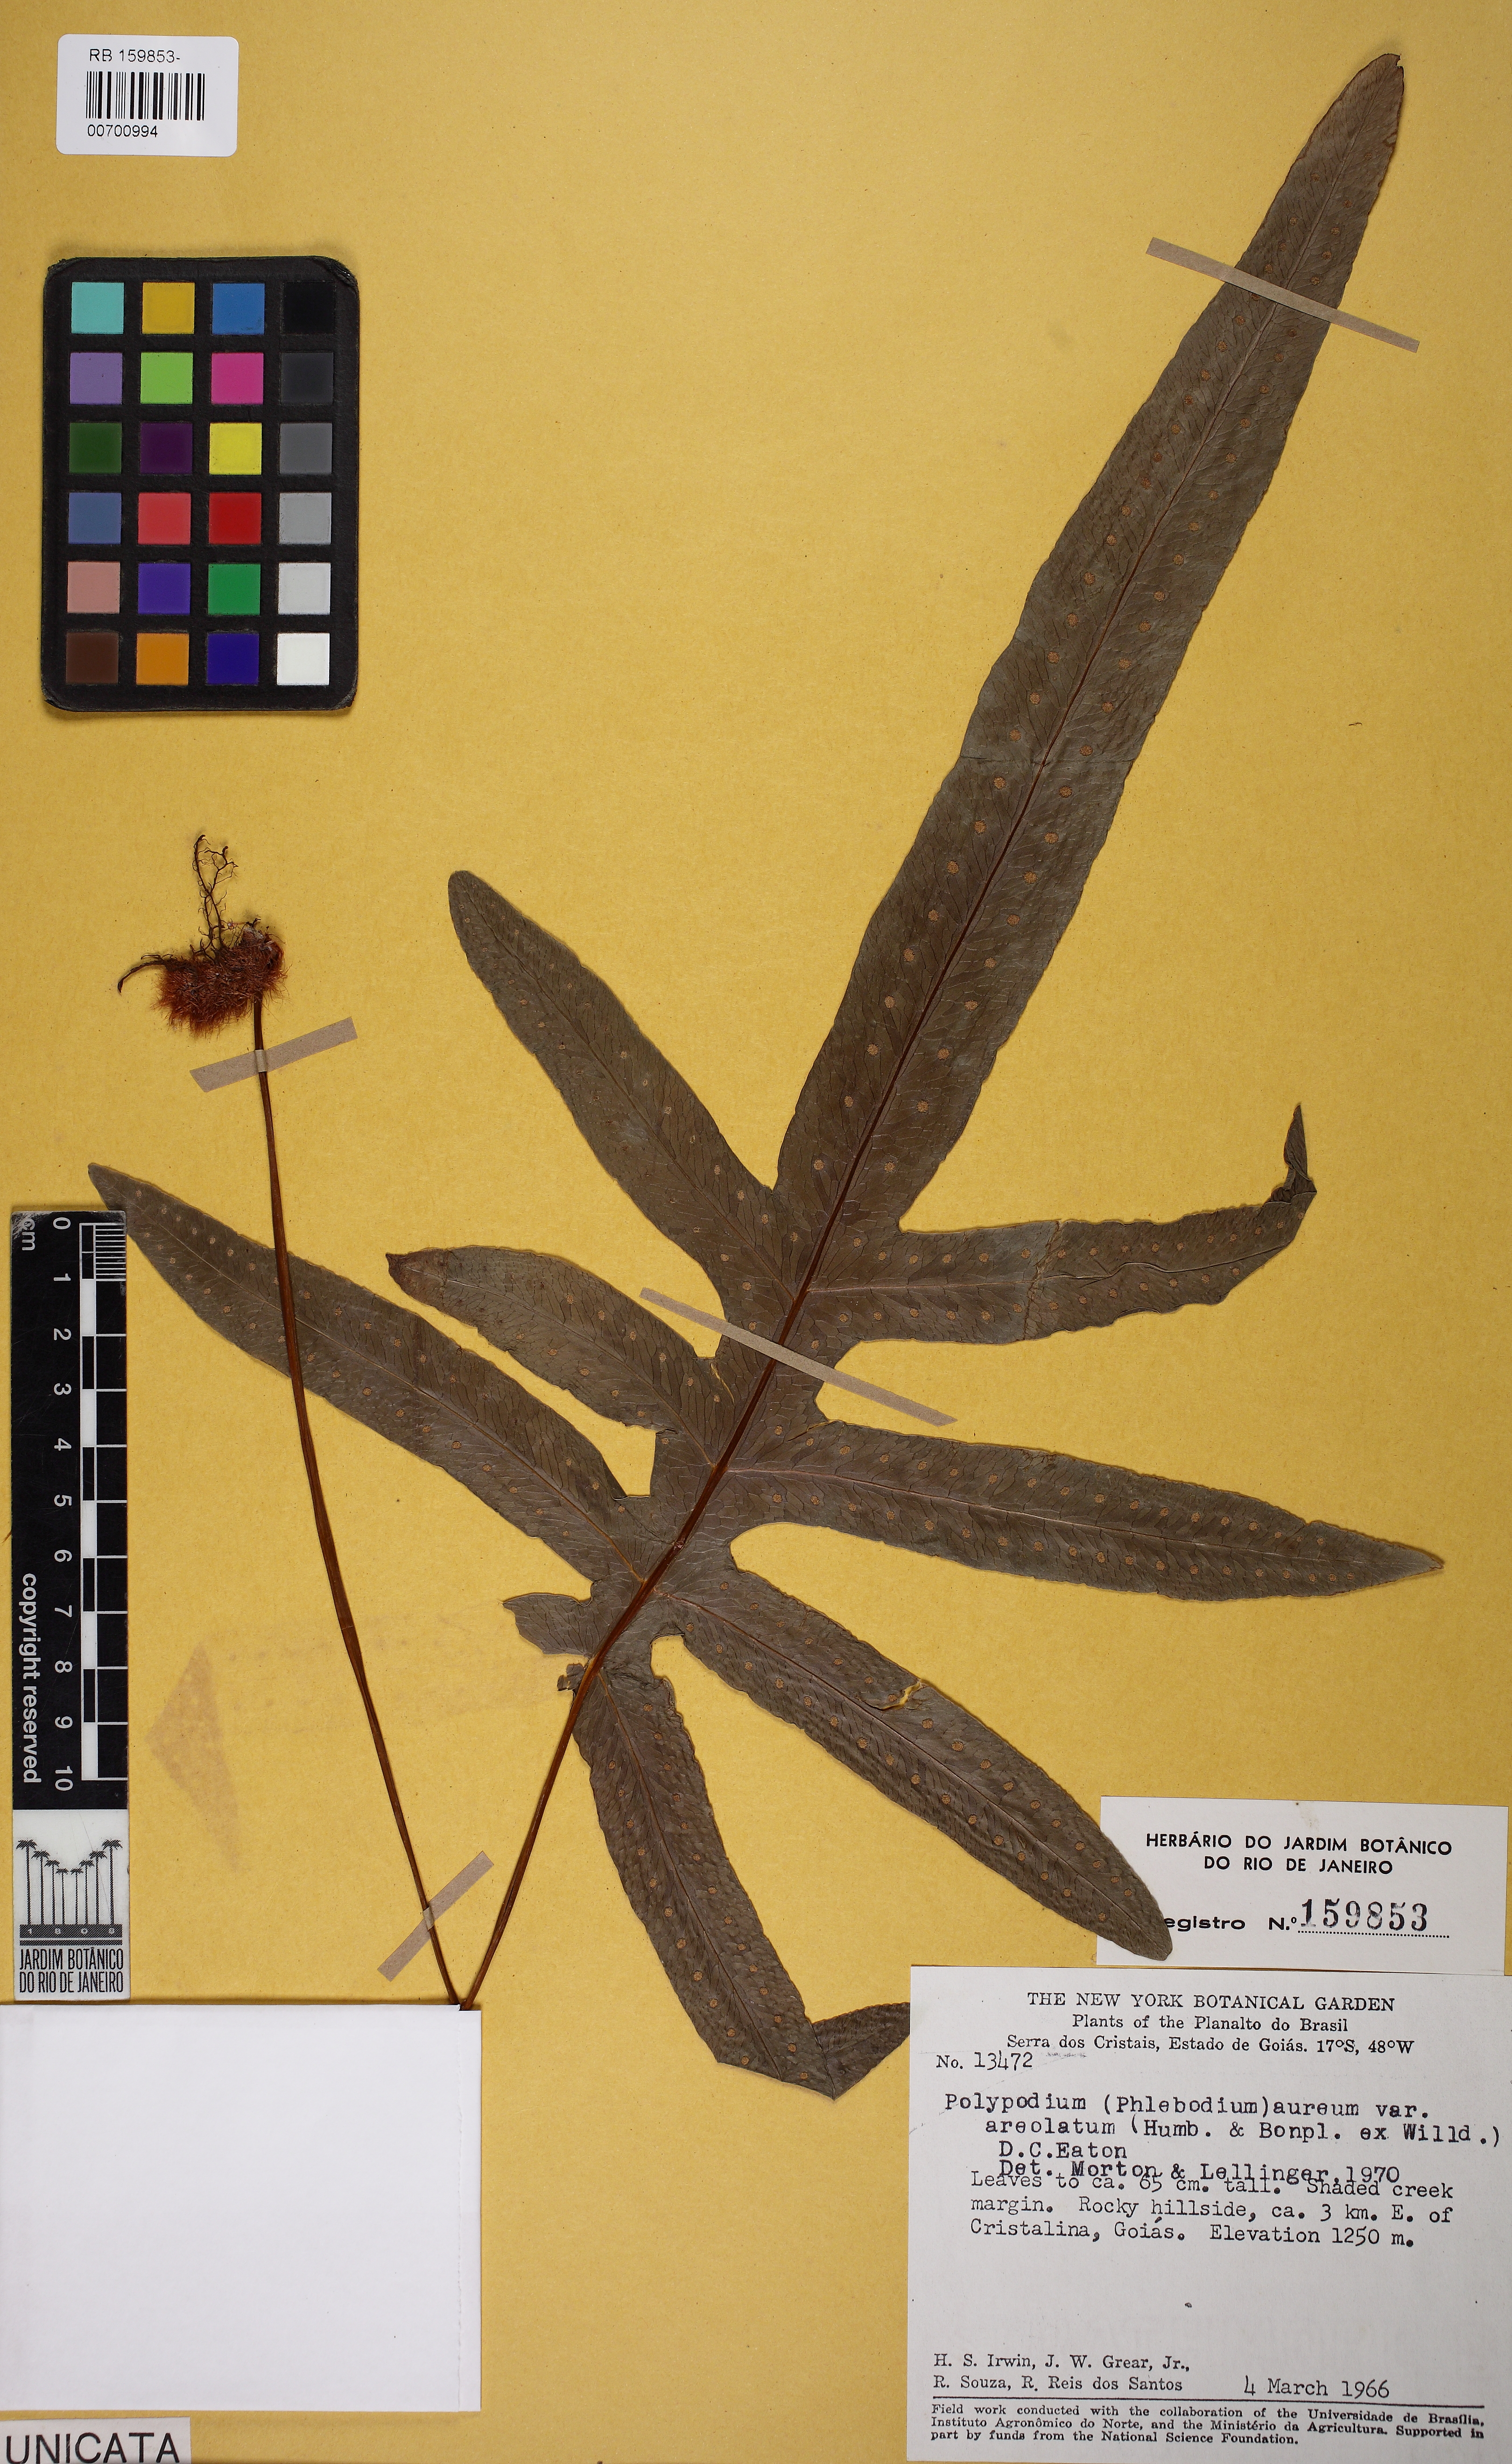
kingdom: Plantae
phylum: Tracheophyta
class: Polypodiopsida
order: Polypodiales
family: Polypodiaceae
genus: Phlebodium
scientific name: Phlebodium pseudoaureum
